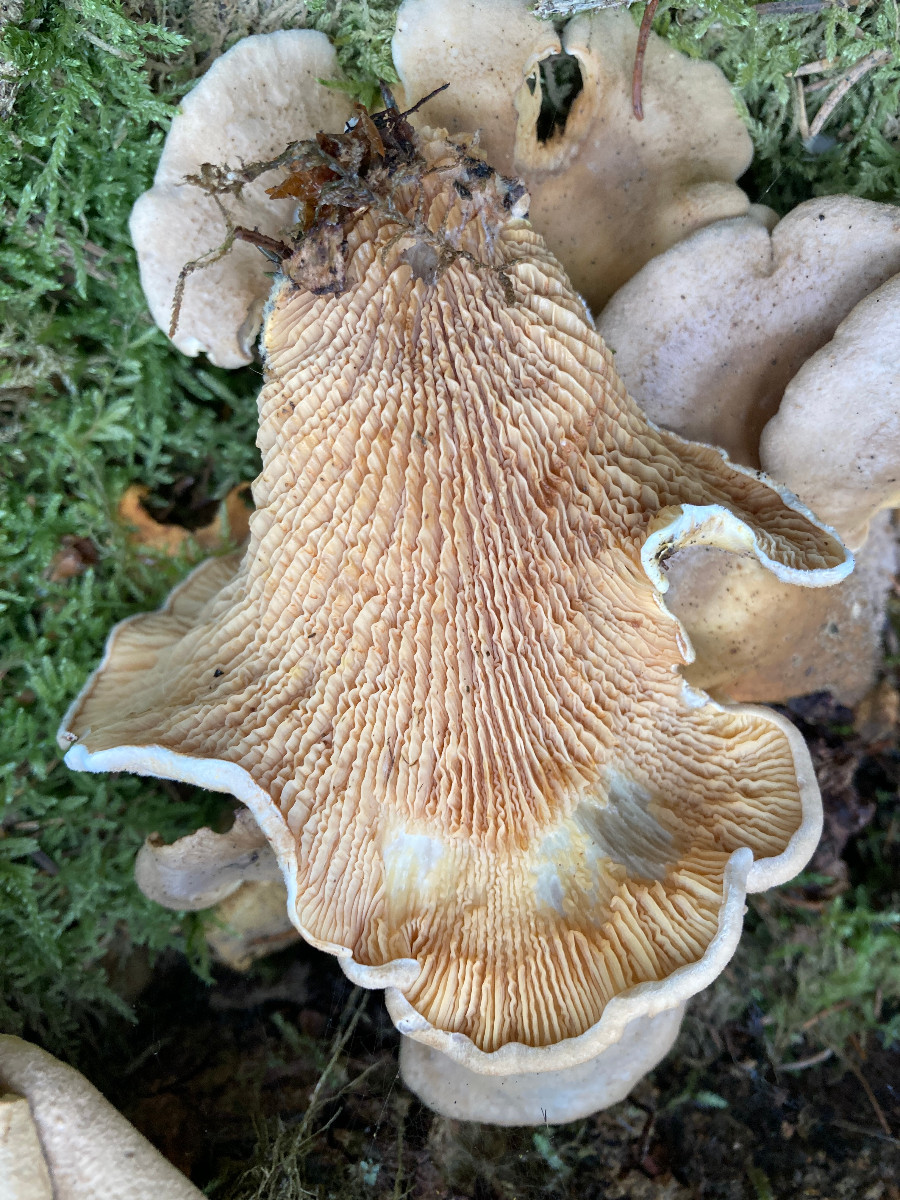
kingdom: Fungi
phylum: Basidiomycota
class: Agaricomycetes
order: Boletales
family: Tapinellaceae
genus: Tapinella
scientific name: Tapinella panuoides
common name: tømmer-viftesvamp
